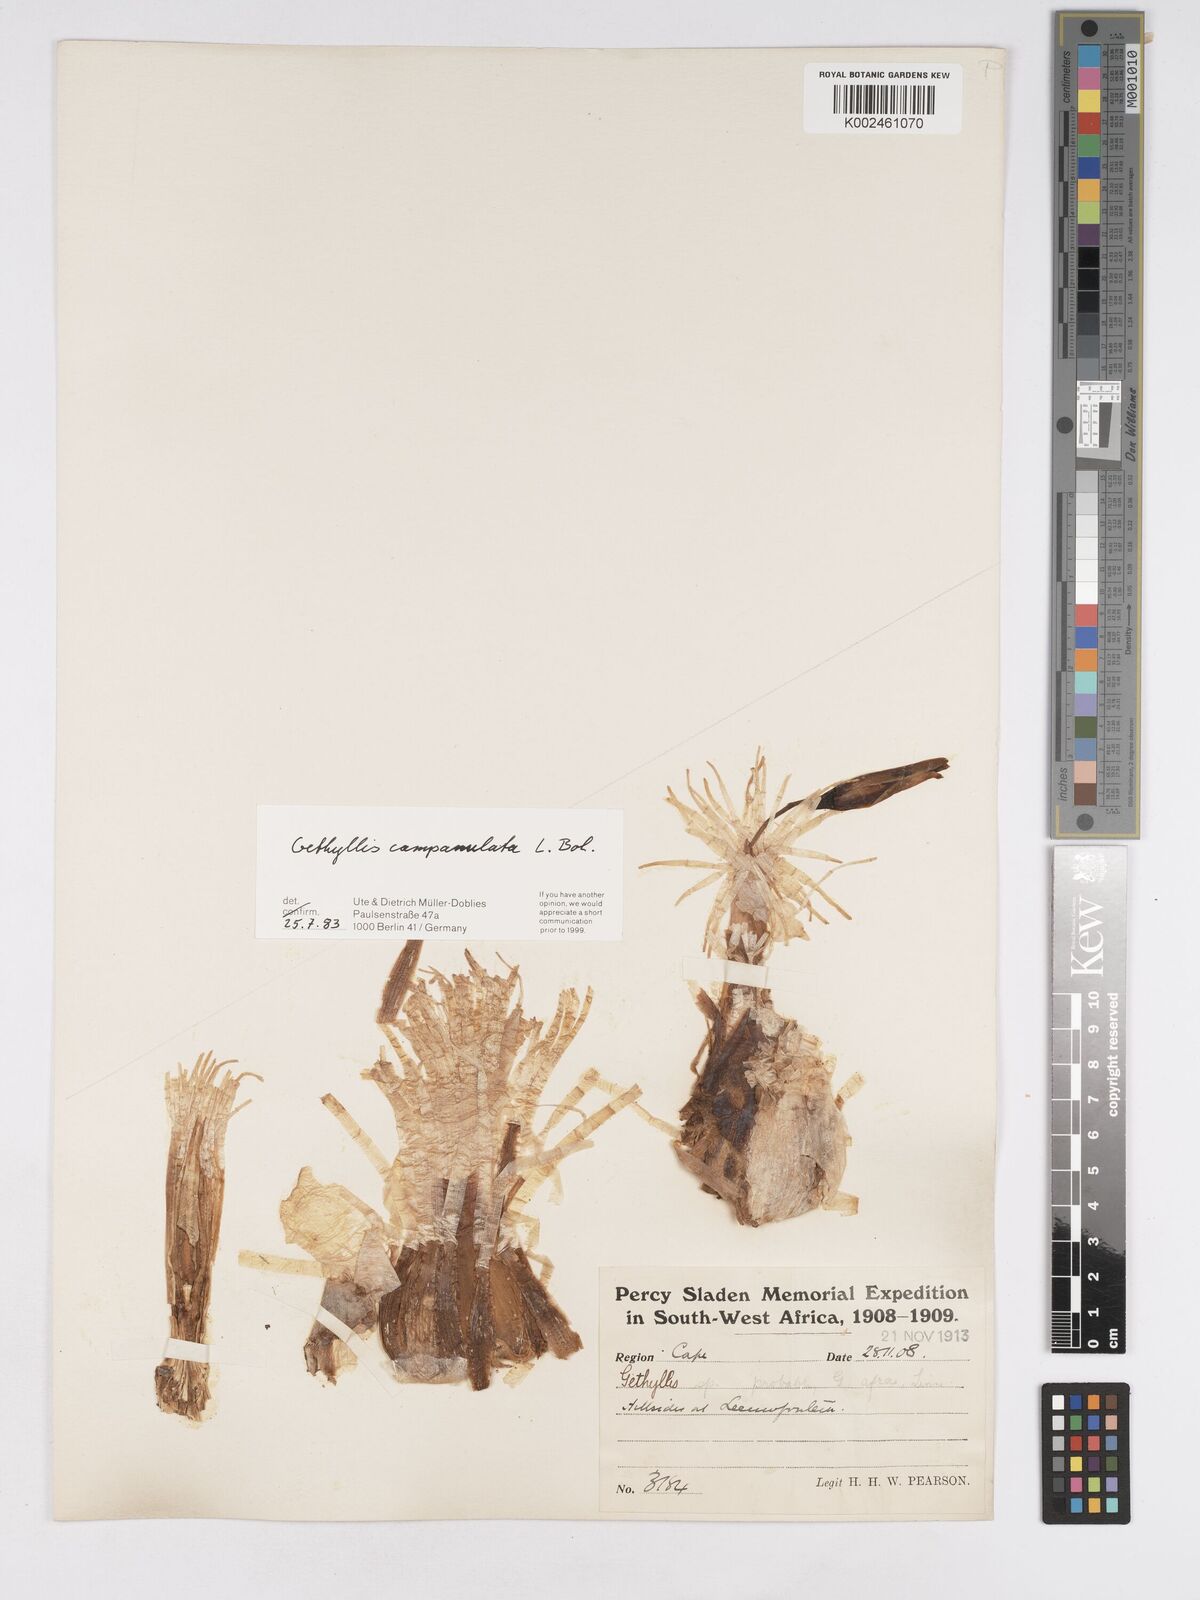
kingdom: Plantae
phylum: Tracheophyta
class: Liliopsida
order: Asparagales
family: Amaryllidaceae
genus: Gethyllis
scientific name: Gethyllis campanulata
